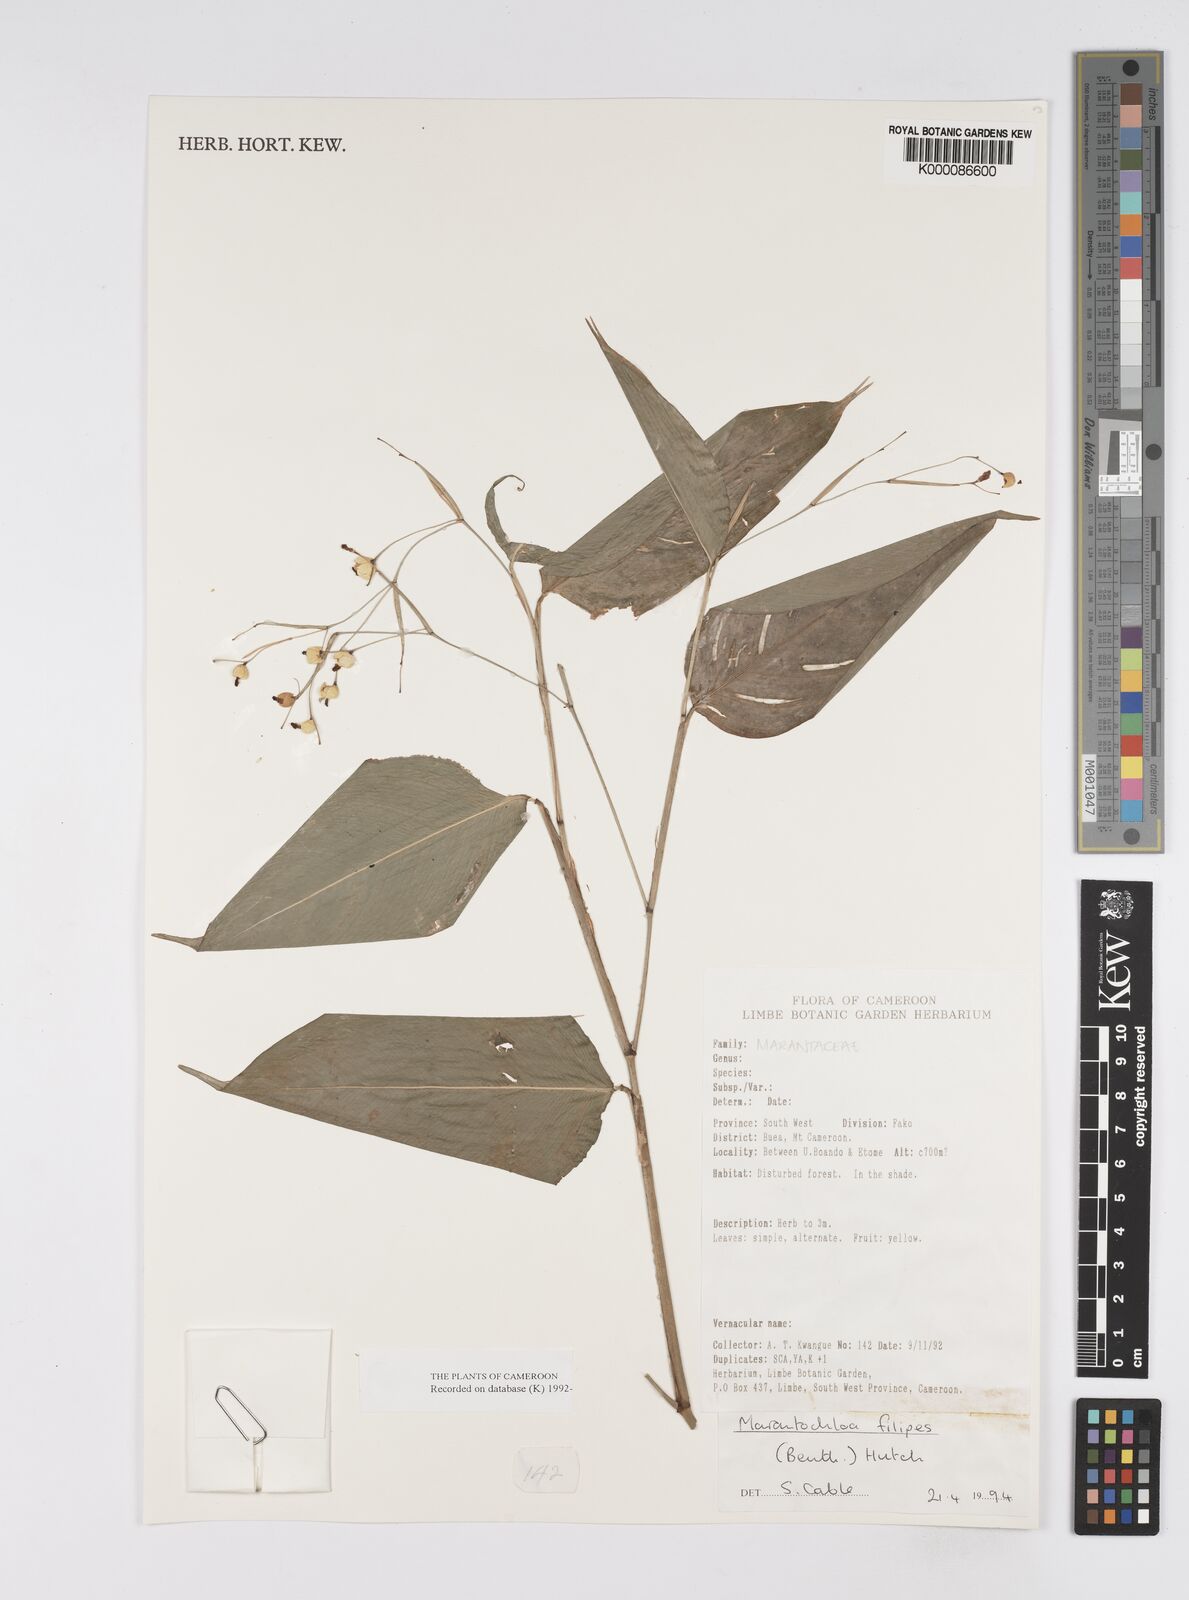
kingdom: Plantae
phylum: Tracheophyta
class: Liliopsida
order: Zingiberales
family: Marantaceae
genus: Marantochloa
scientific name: Marantochloa filipes
